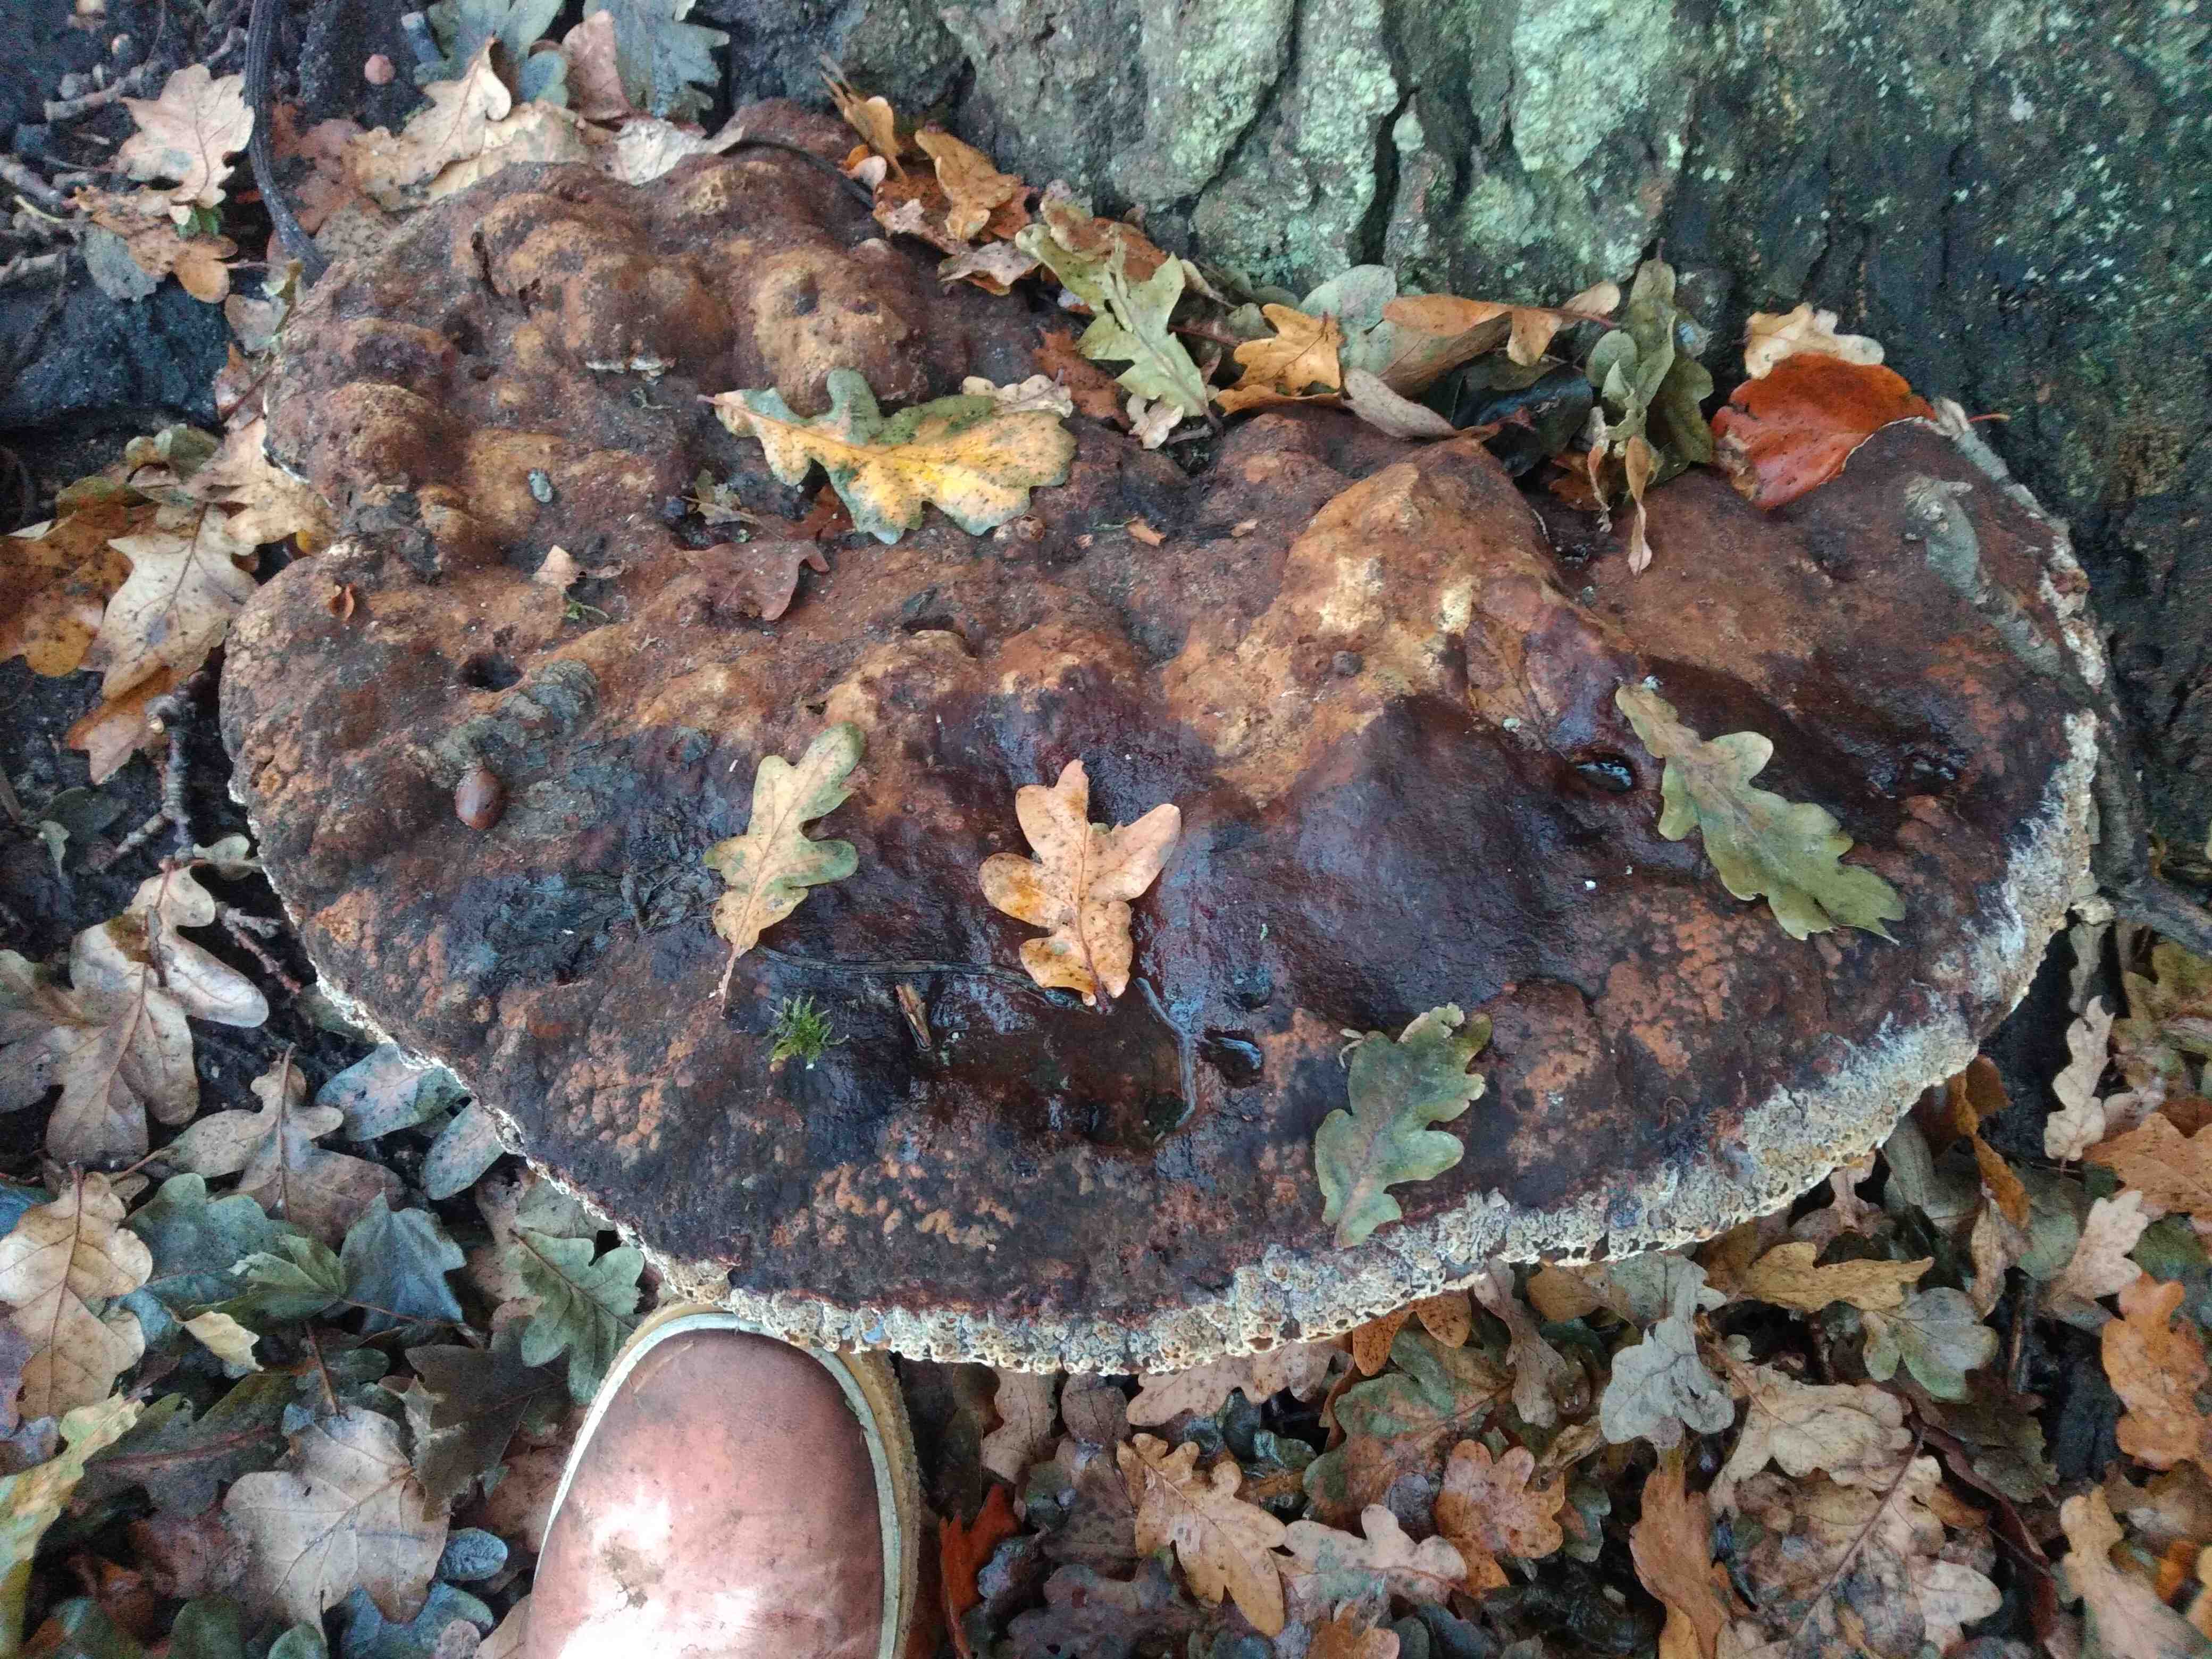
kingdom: Fungi
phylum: Basidiomycota
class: Agaricomycetes
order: Hymenochaetales
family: Hymenochaetaceae
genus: Pseudoinonotus
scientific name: Pseudoinonotus dryadeus
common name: ege-spejlporesvamp
